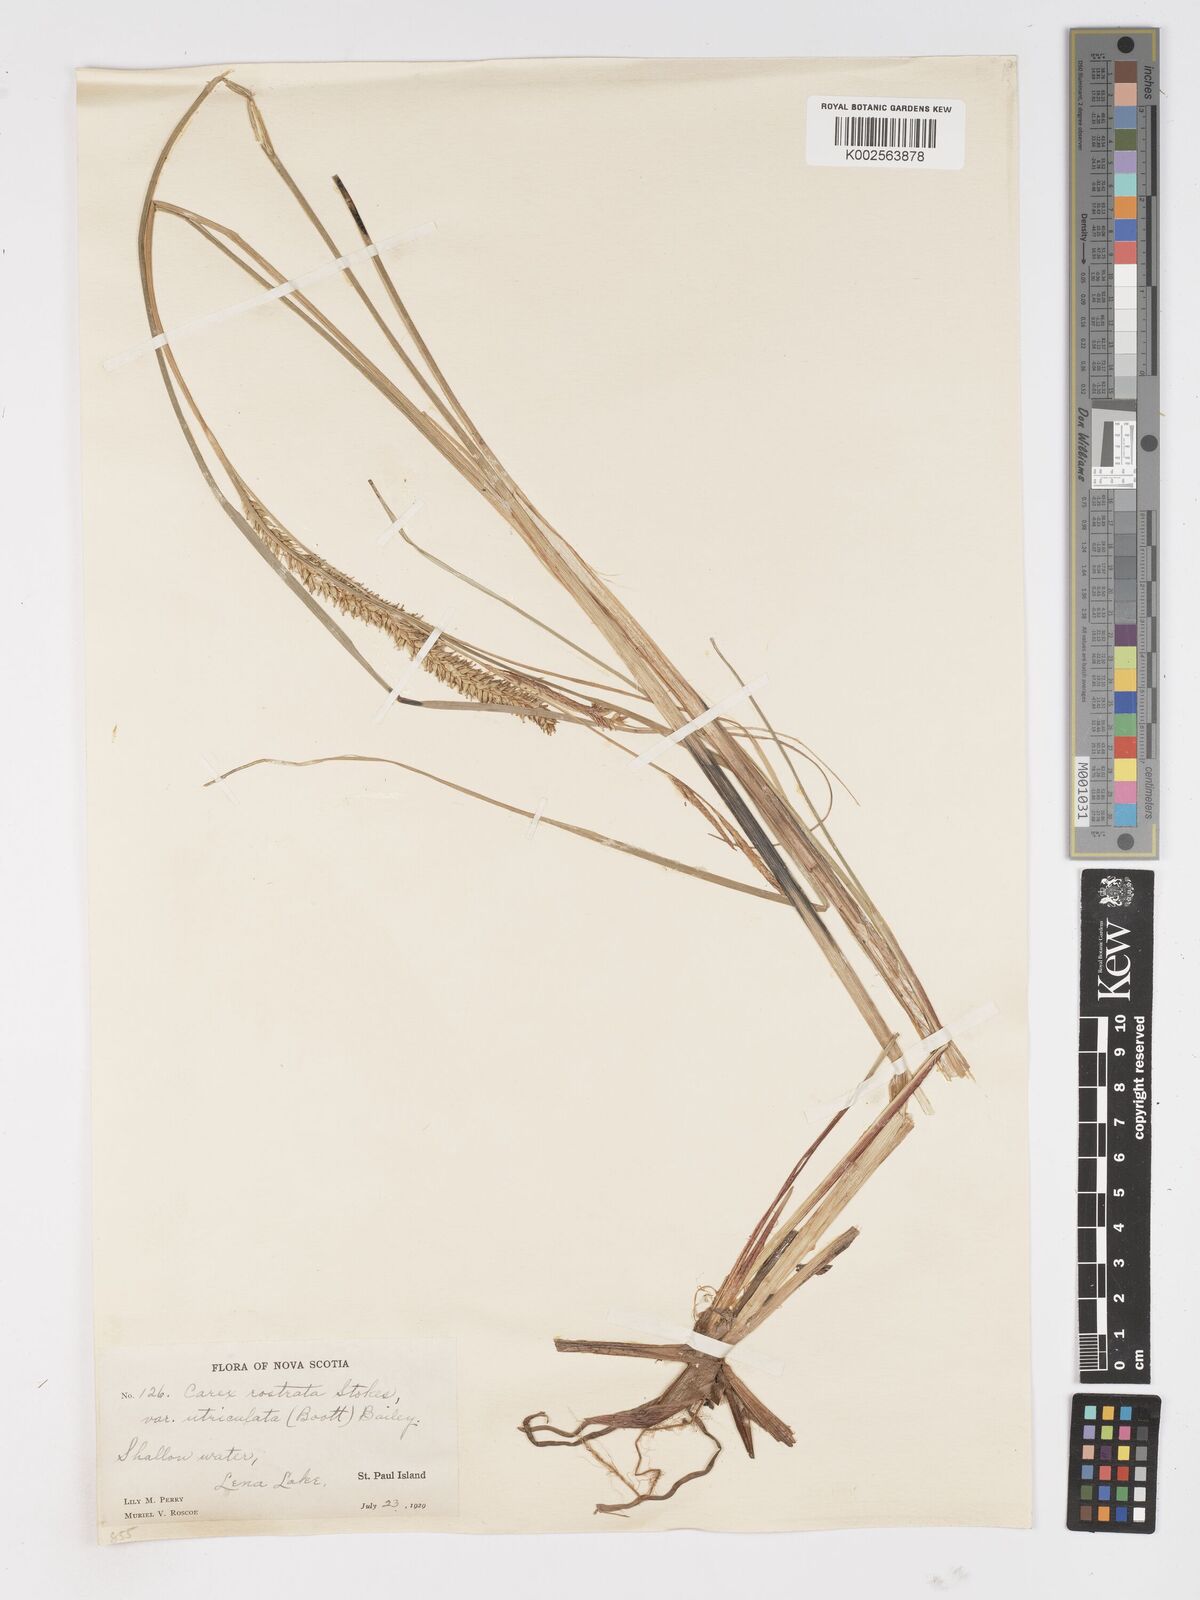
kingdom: Plantae
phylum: Tracheophyta
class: Liliopsida
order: Poales
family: Cyperaceae
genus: Carex
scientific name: Carex rostrata
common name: Bottle sedge
